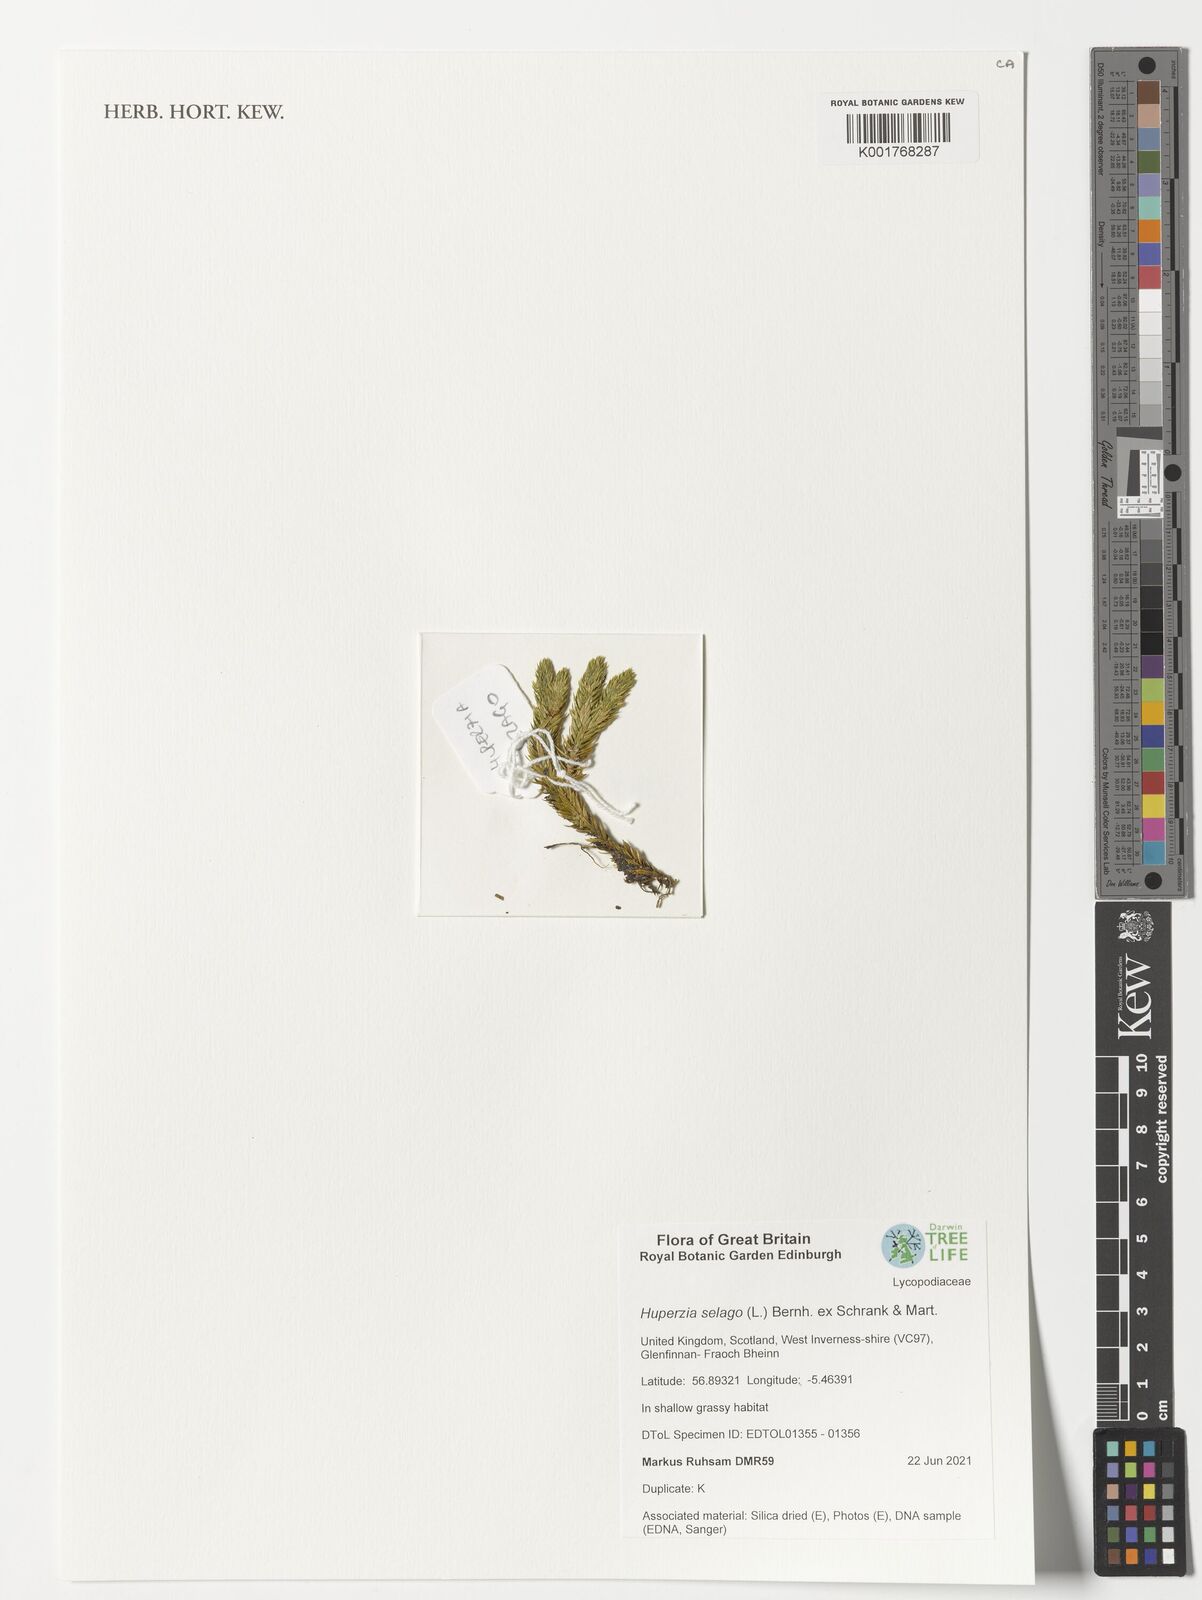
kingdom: Plantae
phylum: Tracheophyta
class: Lycopodiopsida
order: Lycopodiales
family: Lycopodiaceae
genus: Huperzia
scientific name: Huperzia selago
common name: Northern firmoss
